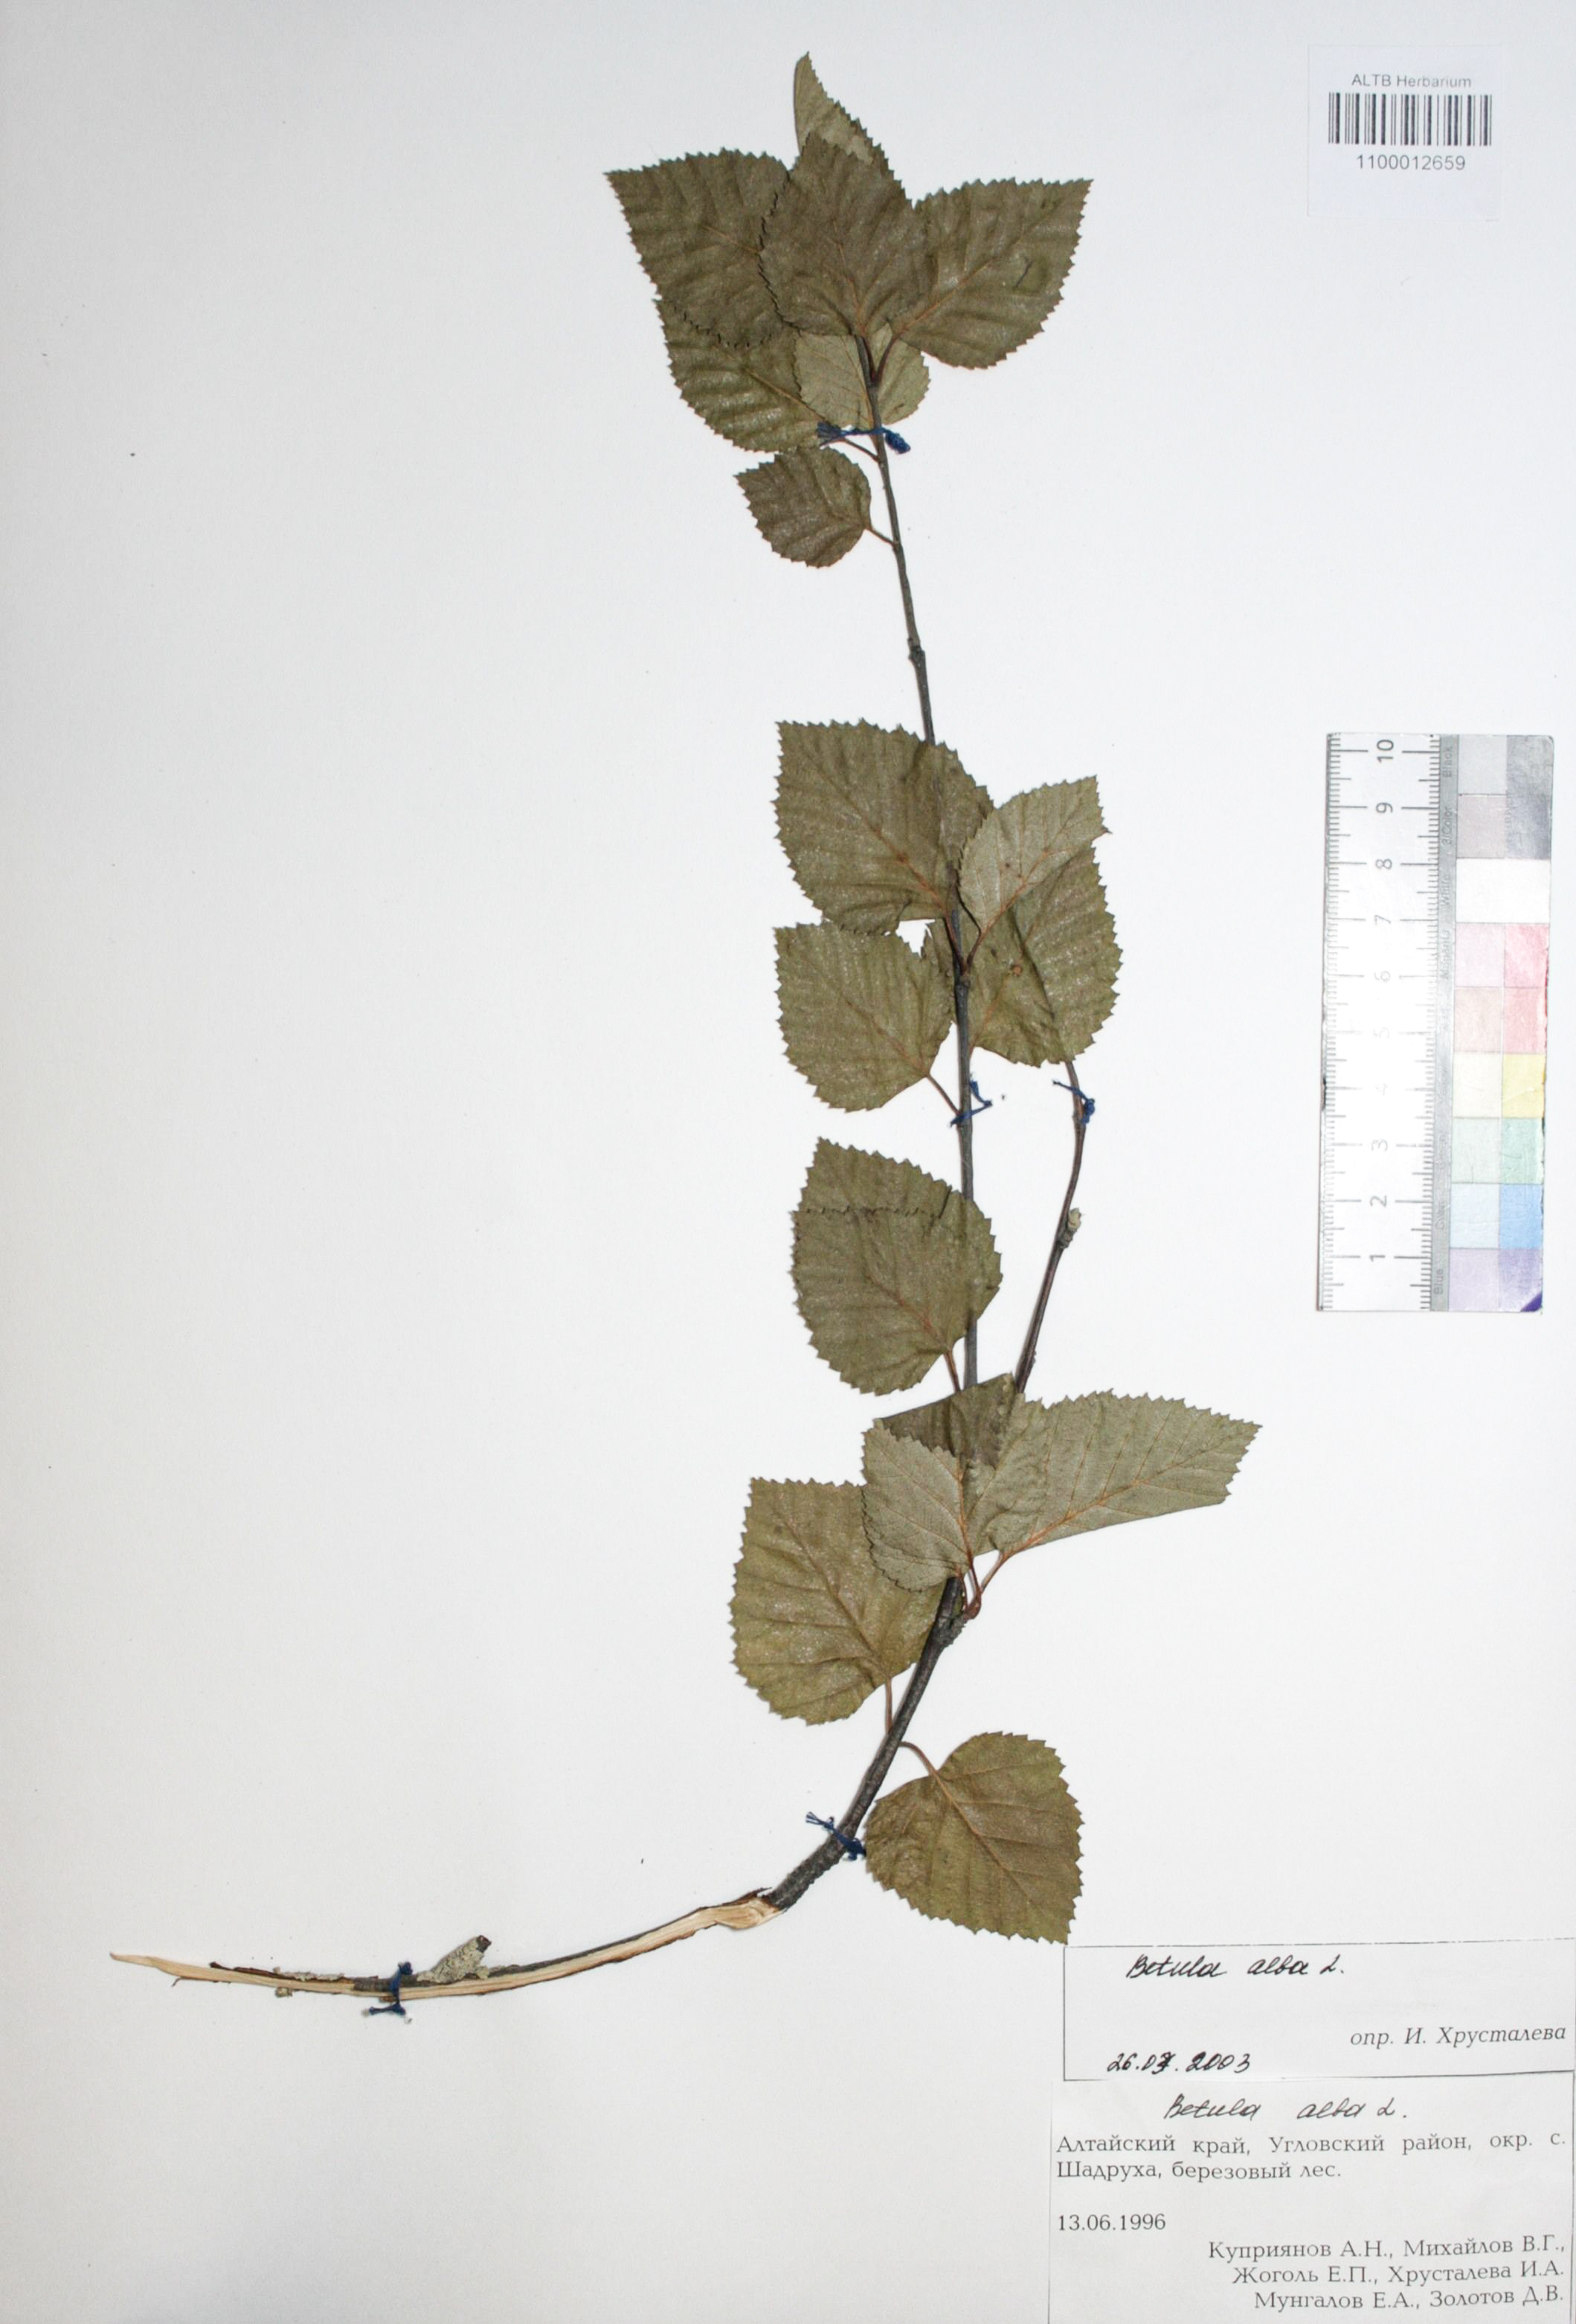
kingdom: Plantae
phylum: Tracheophyta
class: Magnoliopsida
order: Fagales
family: Betulaceae
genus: Betula
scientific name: Betula pubescens
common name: Downy birch
